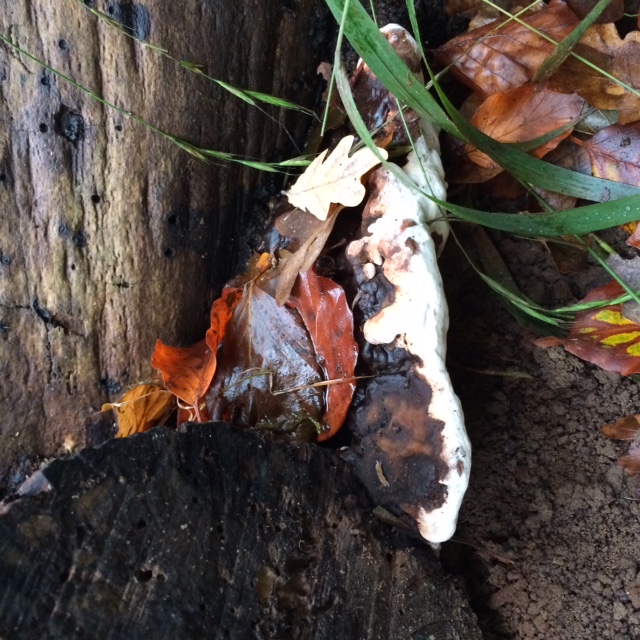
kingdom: Fungi
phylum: Basidiomycota
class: Agaricomycetes
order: Polyporales
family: Polyporaceae
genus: Ganoderma
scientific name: Ganoderma applanatum
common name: flad lakporesvamp
